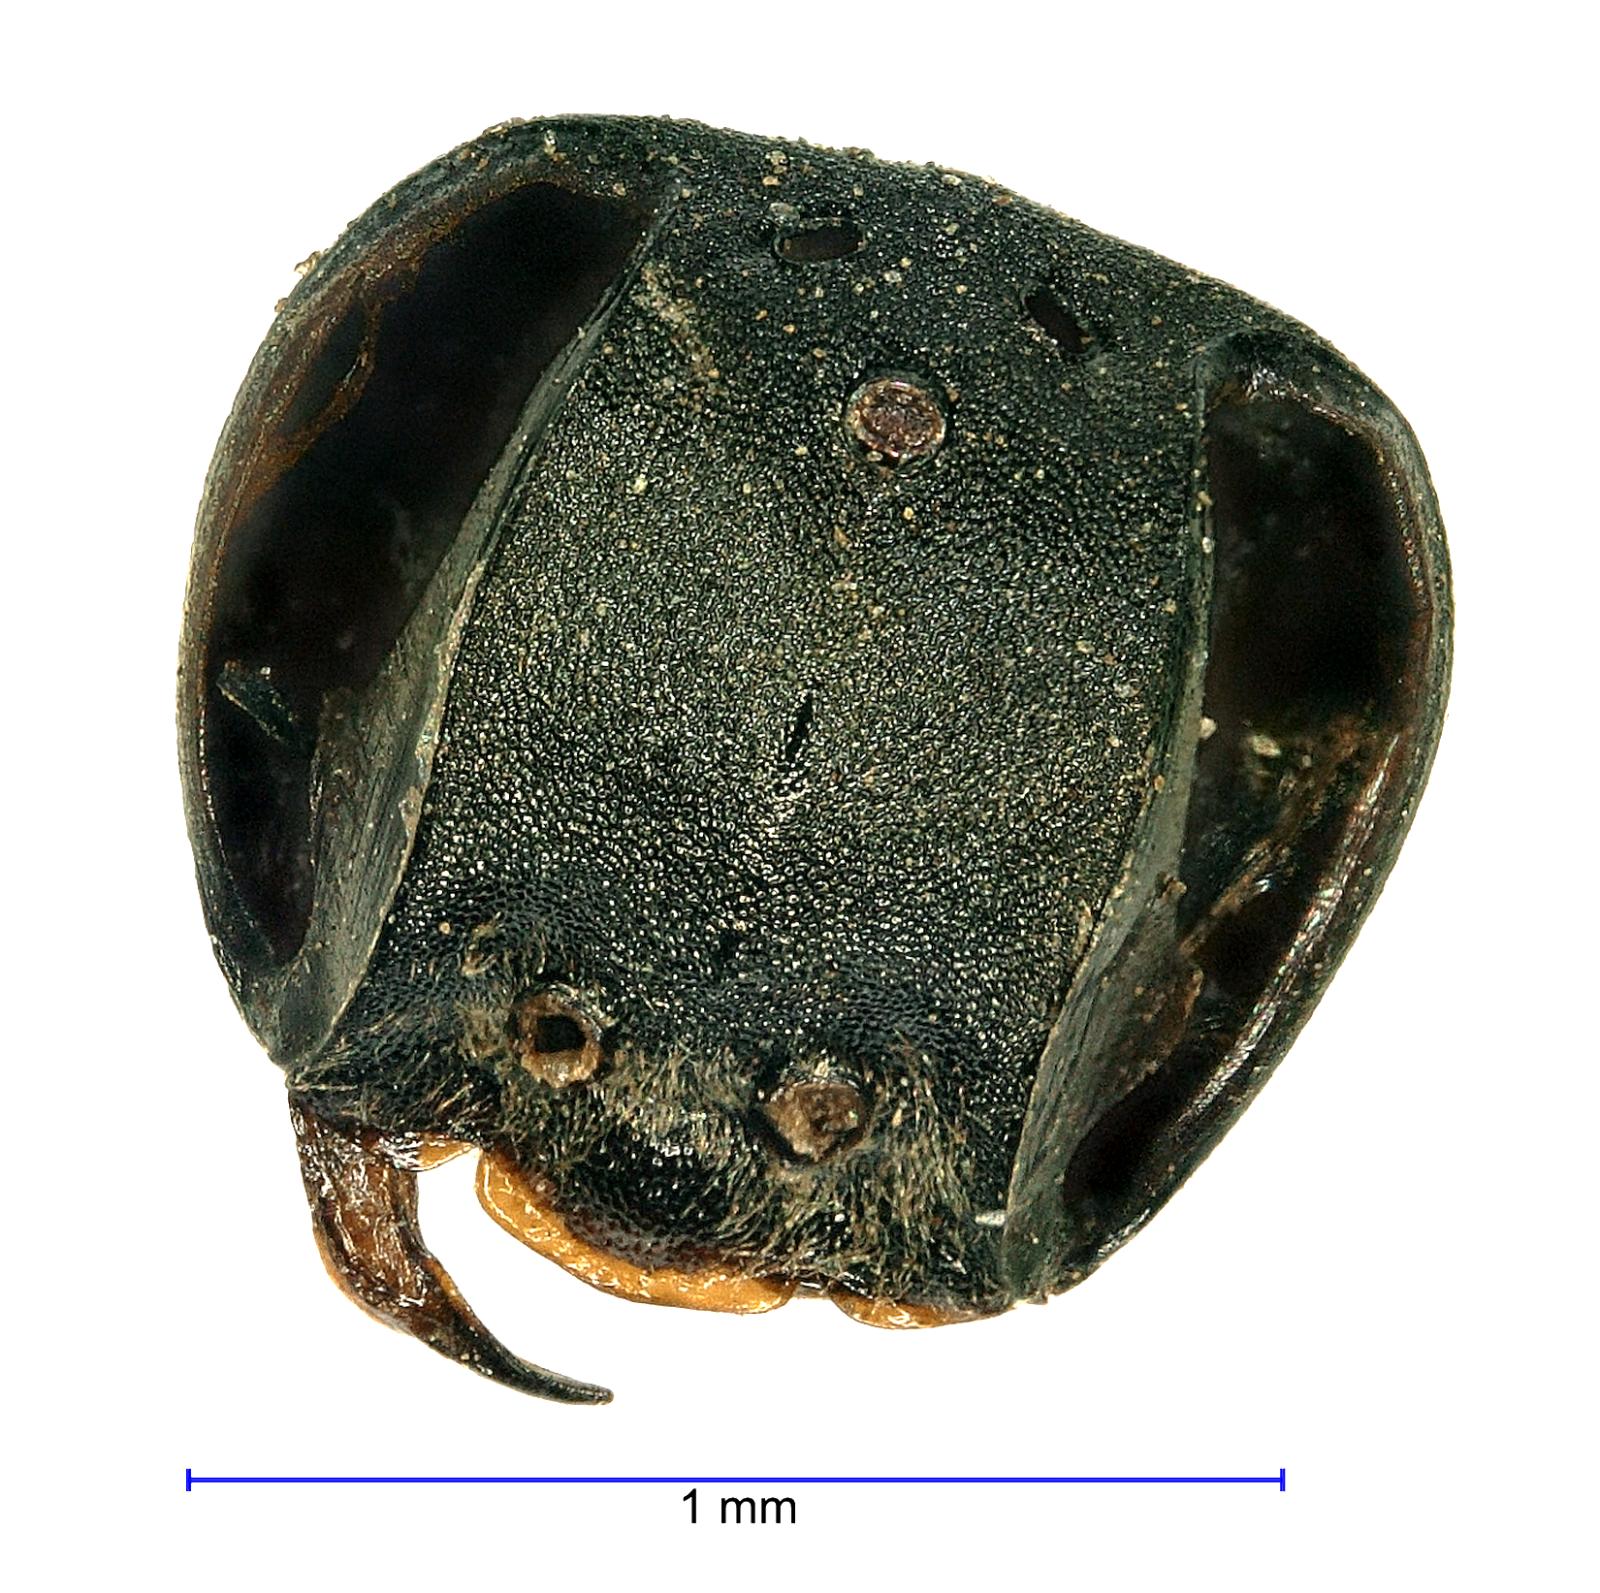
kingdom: Animalia
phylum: Arthropoda
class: Insecta
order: Hymenoptera
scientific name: Hymenoptera
